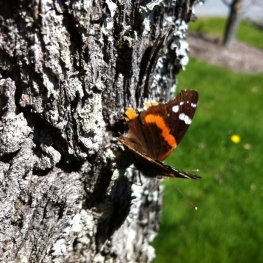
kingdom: Animalia
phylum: Arthropoda
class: Insecta
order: Lepidoptera
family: Nymphalidae
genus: Vanessa
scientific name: Vanessa atalanta
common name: Red Admiral
